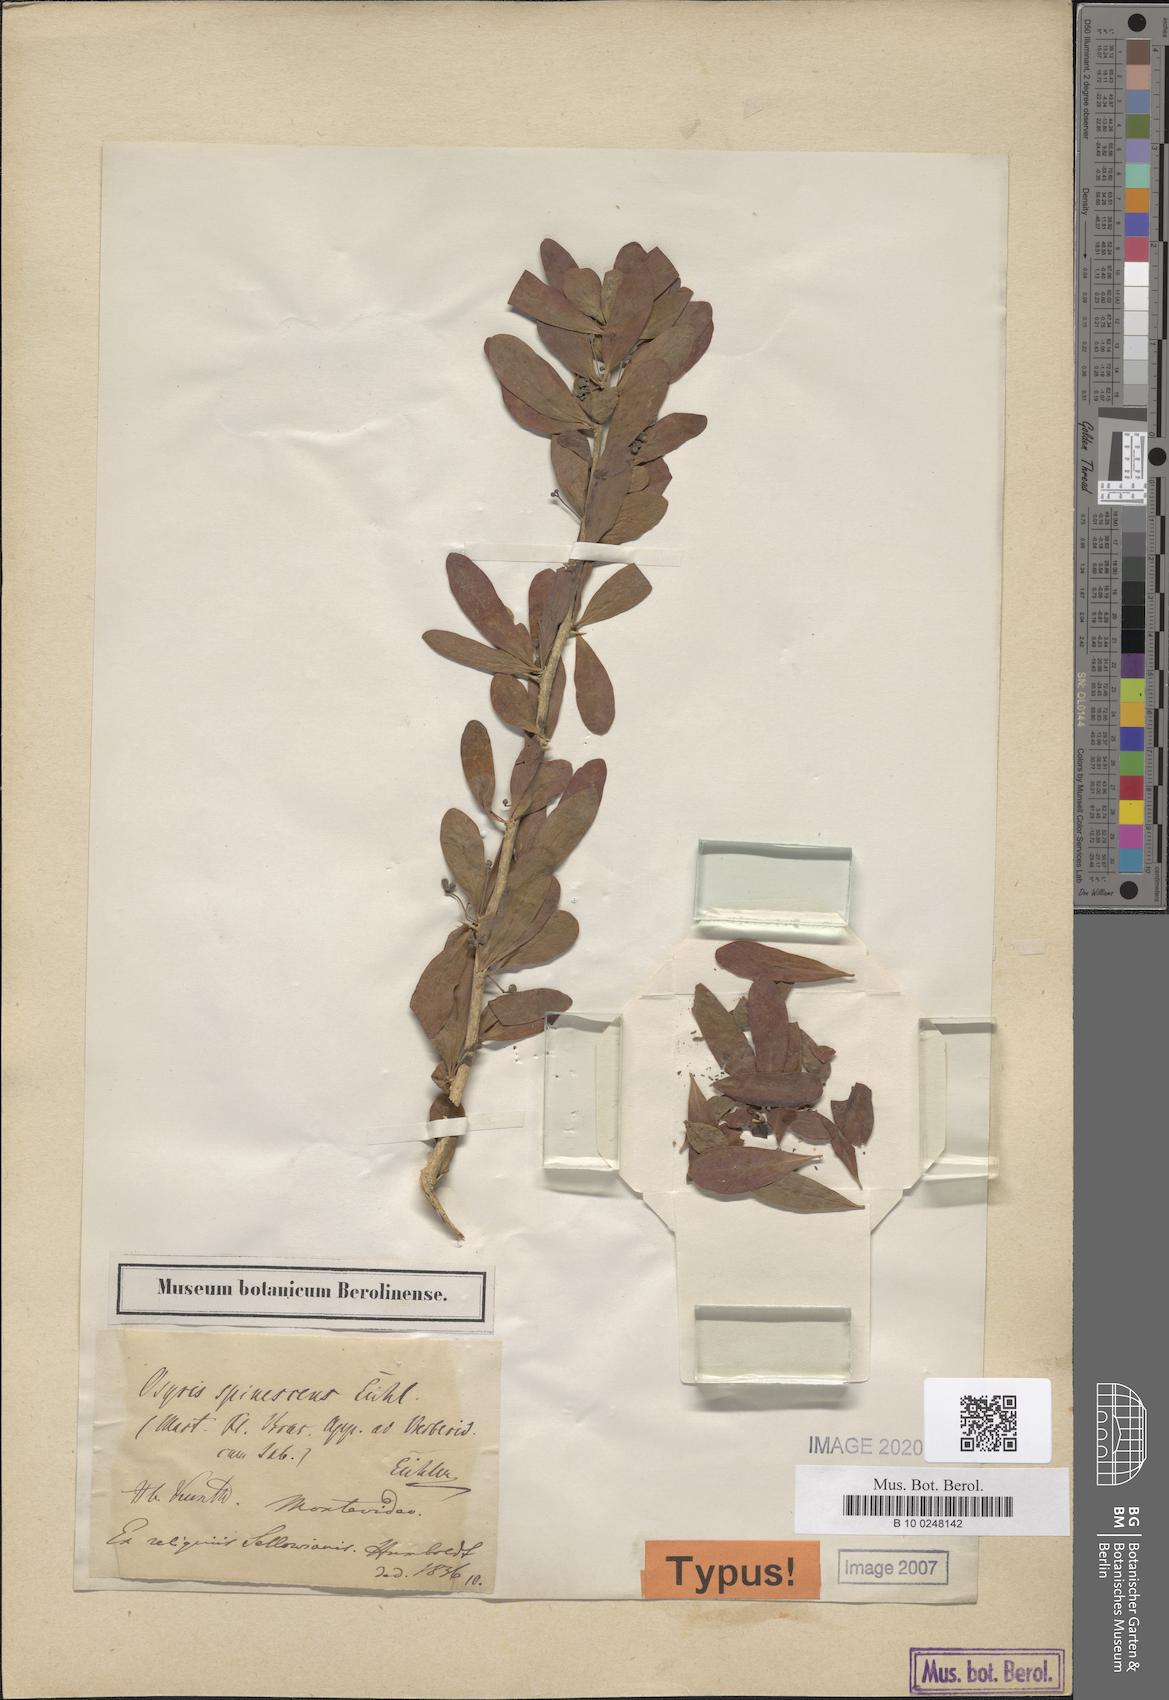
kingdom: Plantae
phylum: Tracheophyta
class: Magnoliopsida
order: Santalales
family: Cervantesiaceae
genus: Acanthosyris
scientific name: Acanthosyris spinescens
